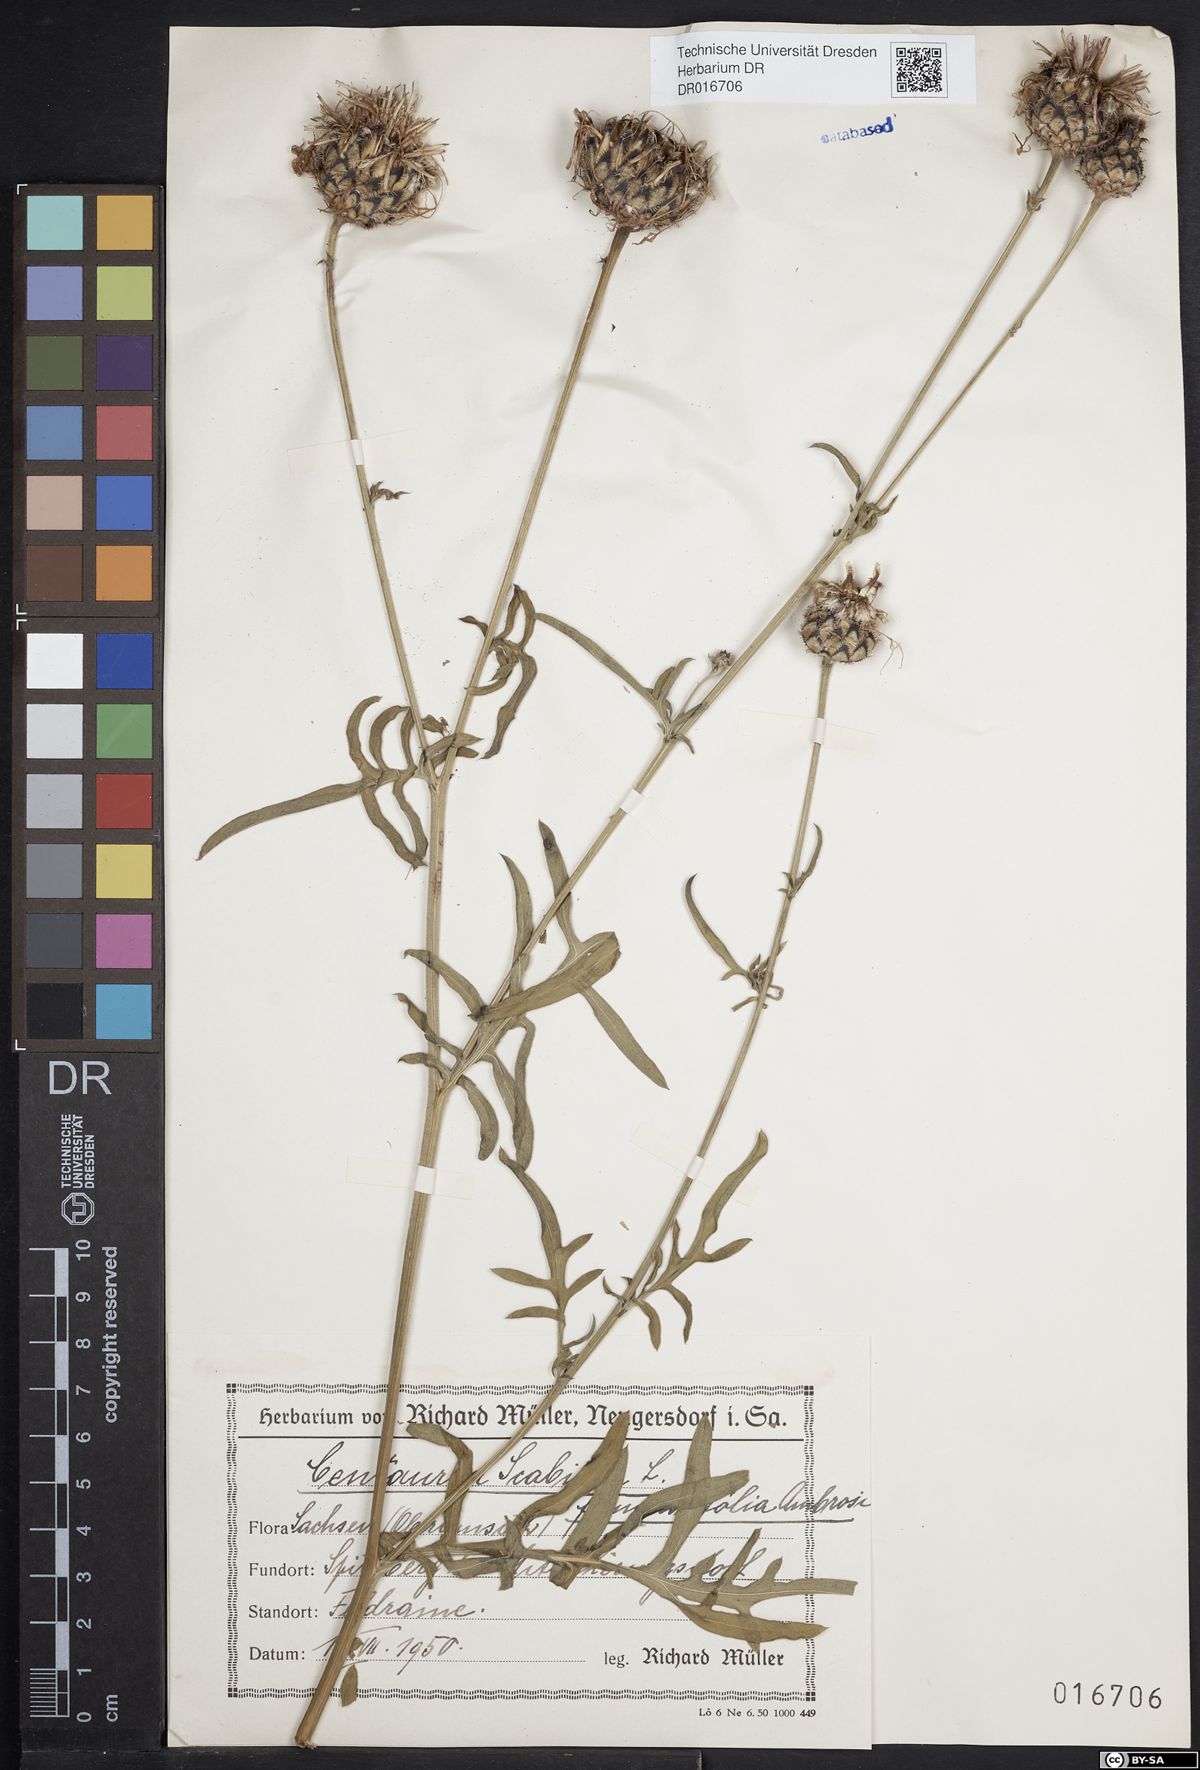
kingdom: Plantae
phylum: Tracheophyta
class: Magnoliopsida
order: Asterales
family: Asteraceae
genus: Centaurea
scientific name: Centaurea scabiosa
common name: Greater knapweed
